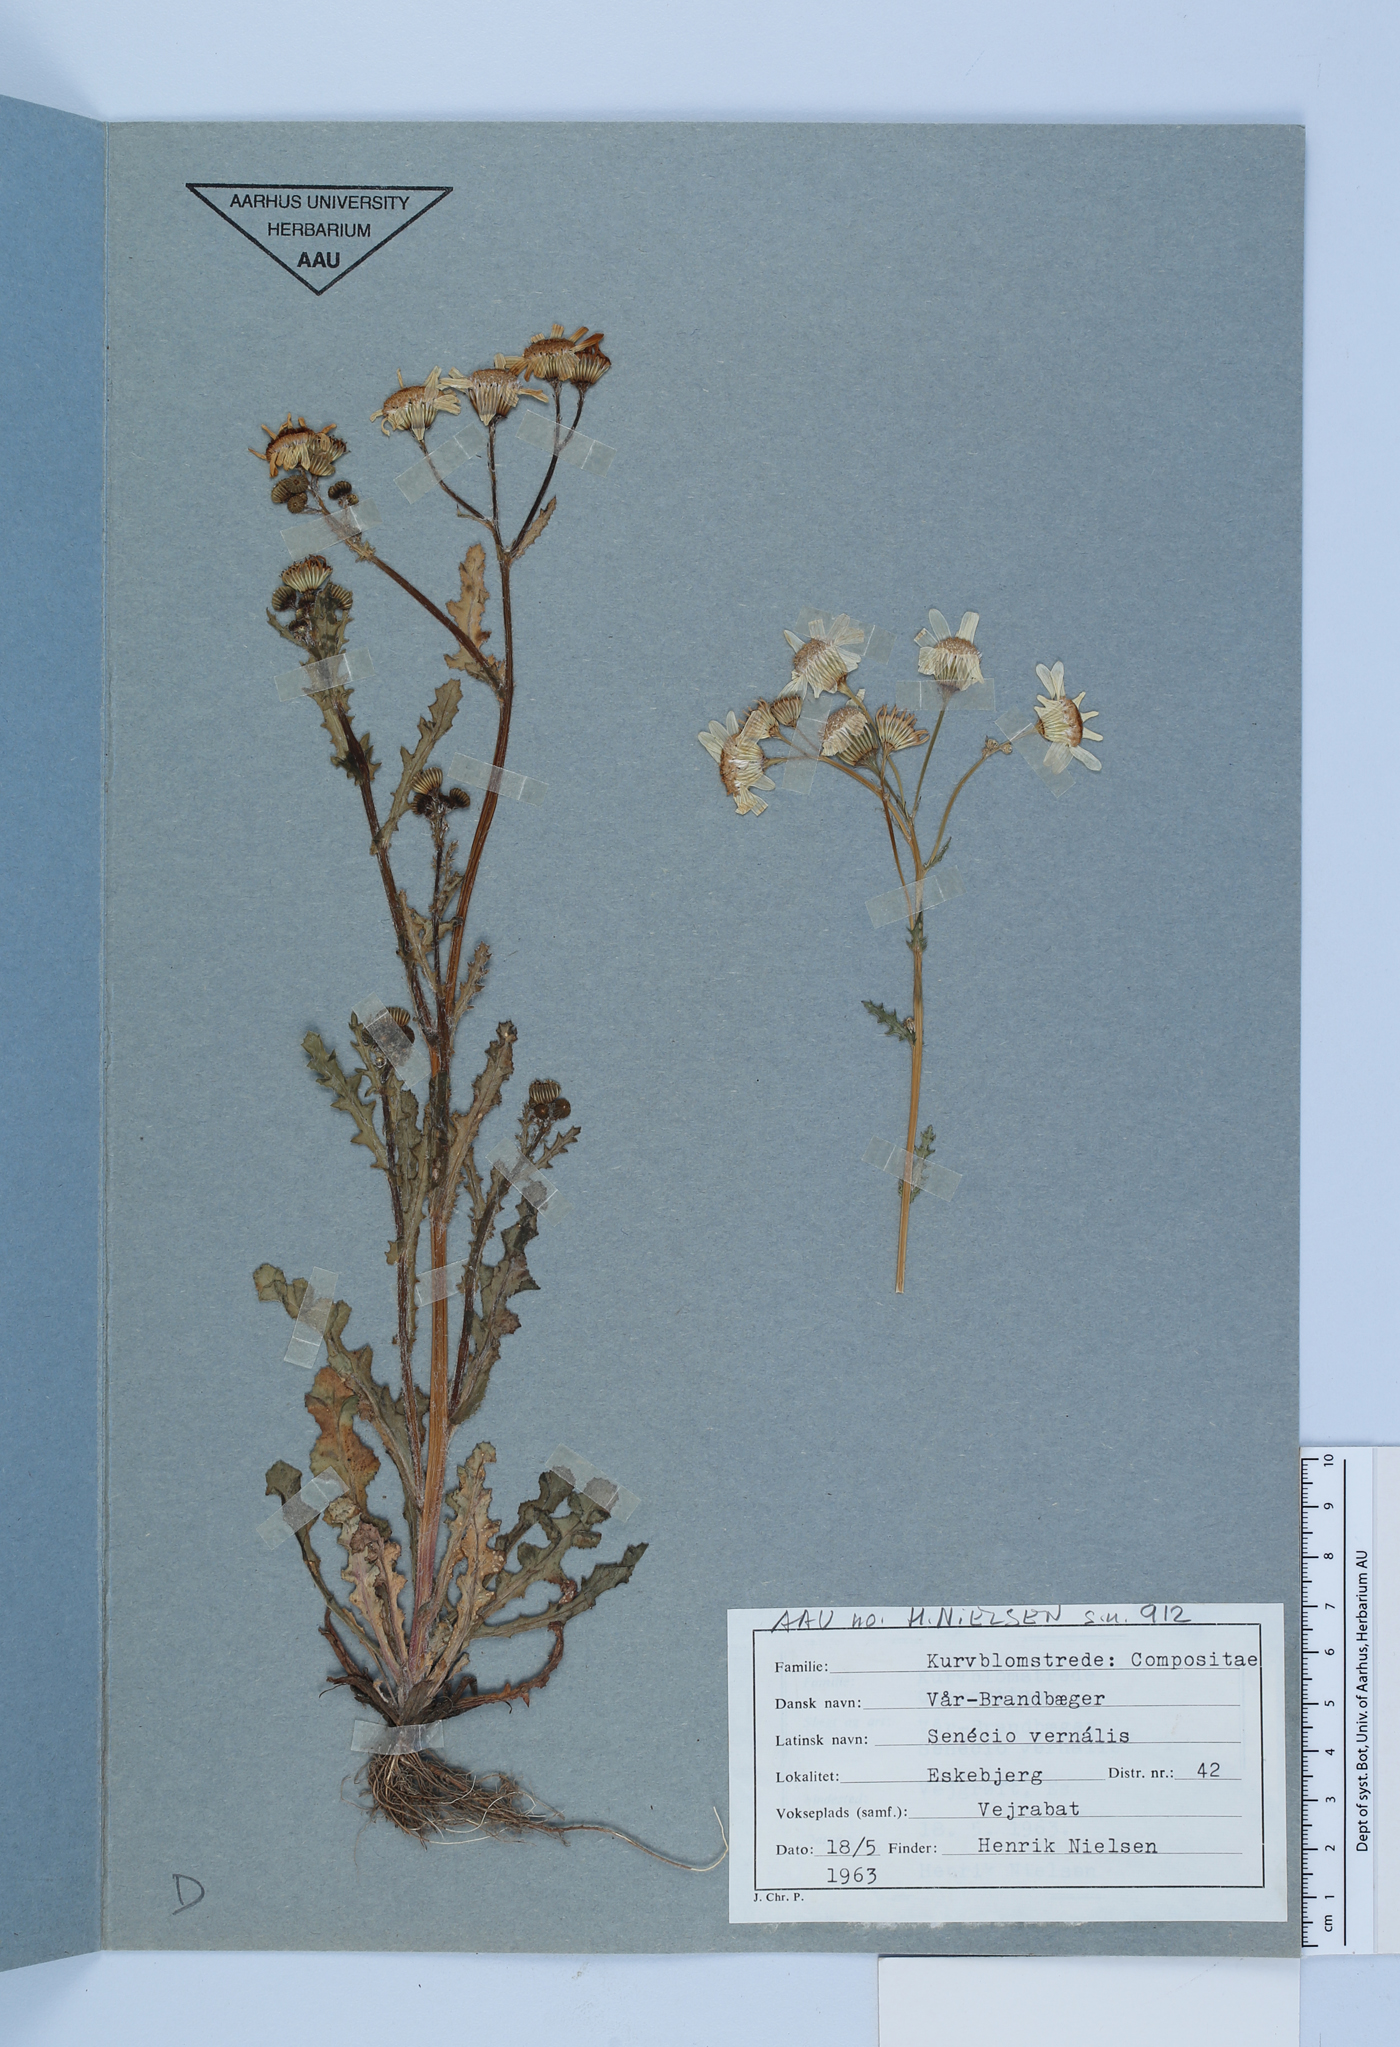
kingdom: Plantae
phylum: Tracheophyta
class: Magnoliopsida
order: Asterales
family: Asteraceae
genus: Senecio
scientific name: Senecio vernalis
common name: Eastern groundsel
